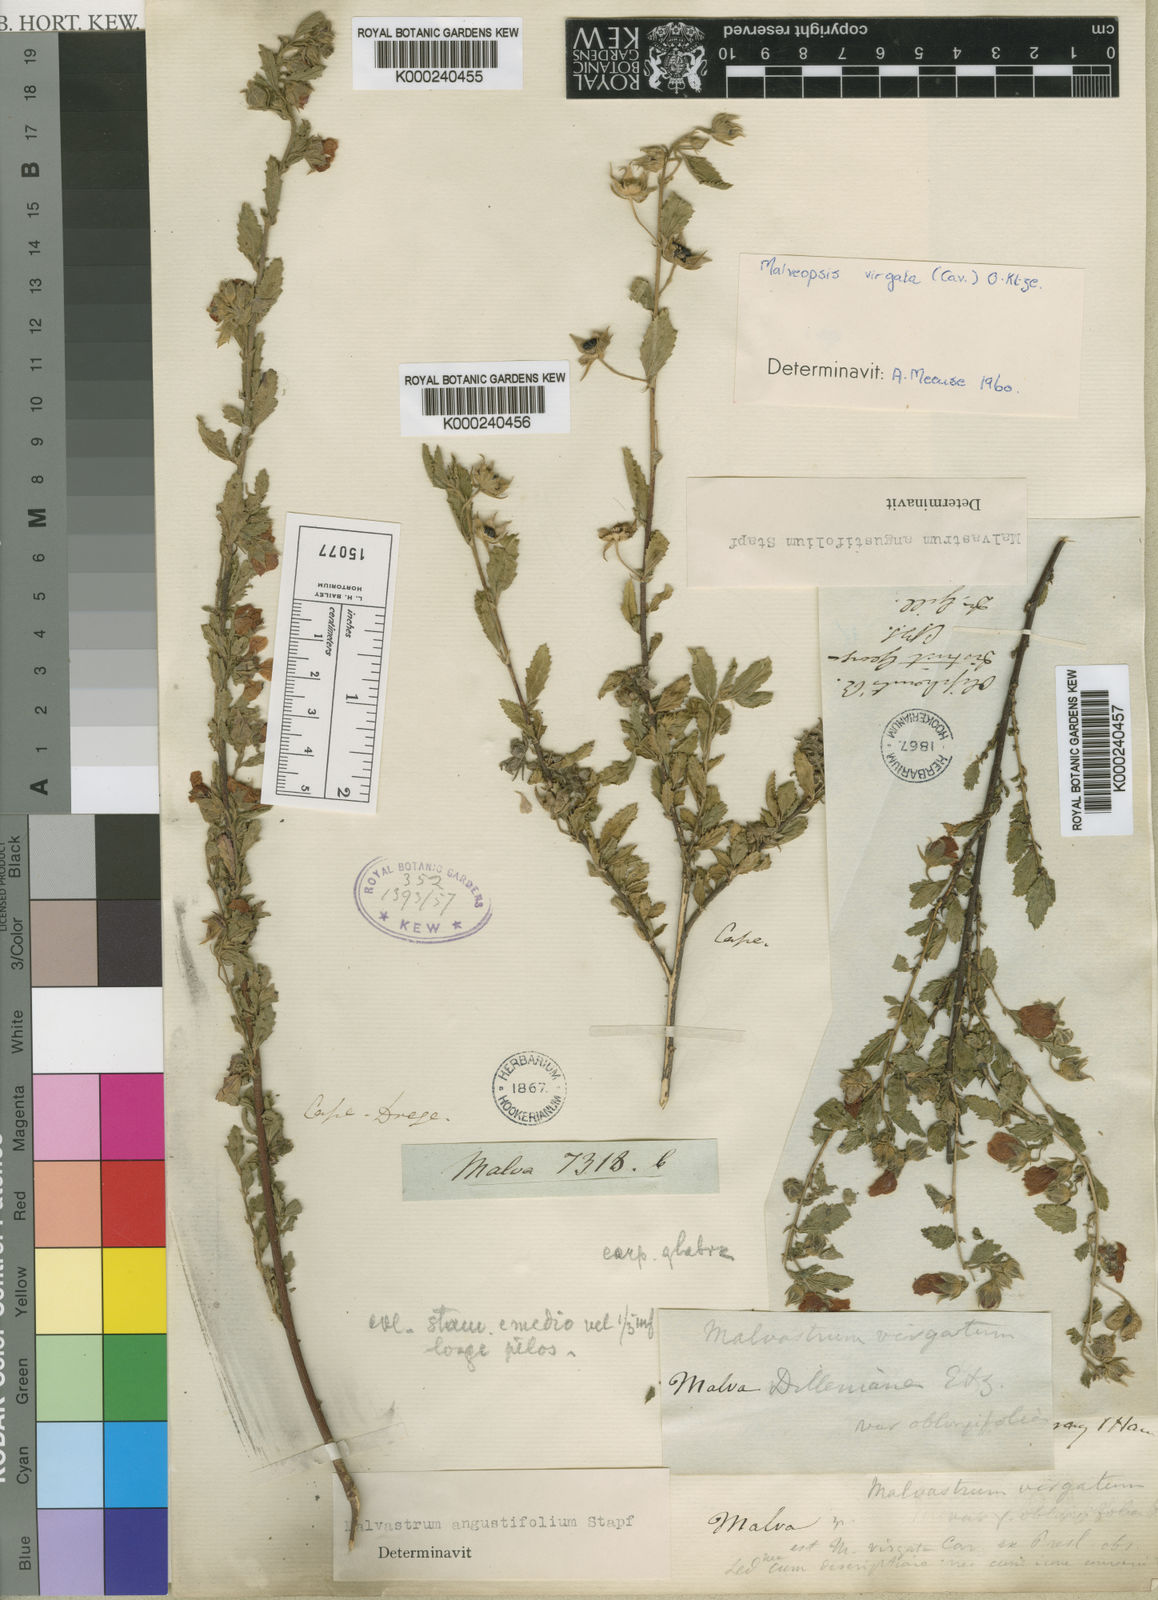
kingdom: Plantae
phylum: Tracheophyta
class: Magnoliopsida
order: Malvales
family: Malvaceae
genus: Anisodontea
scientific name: Anisodontea scabrosa
